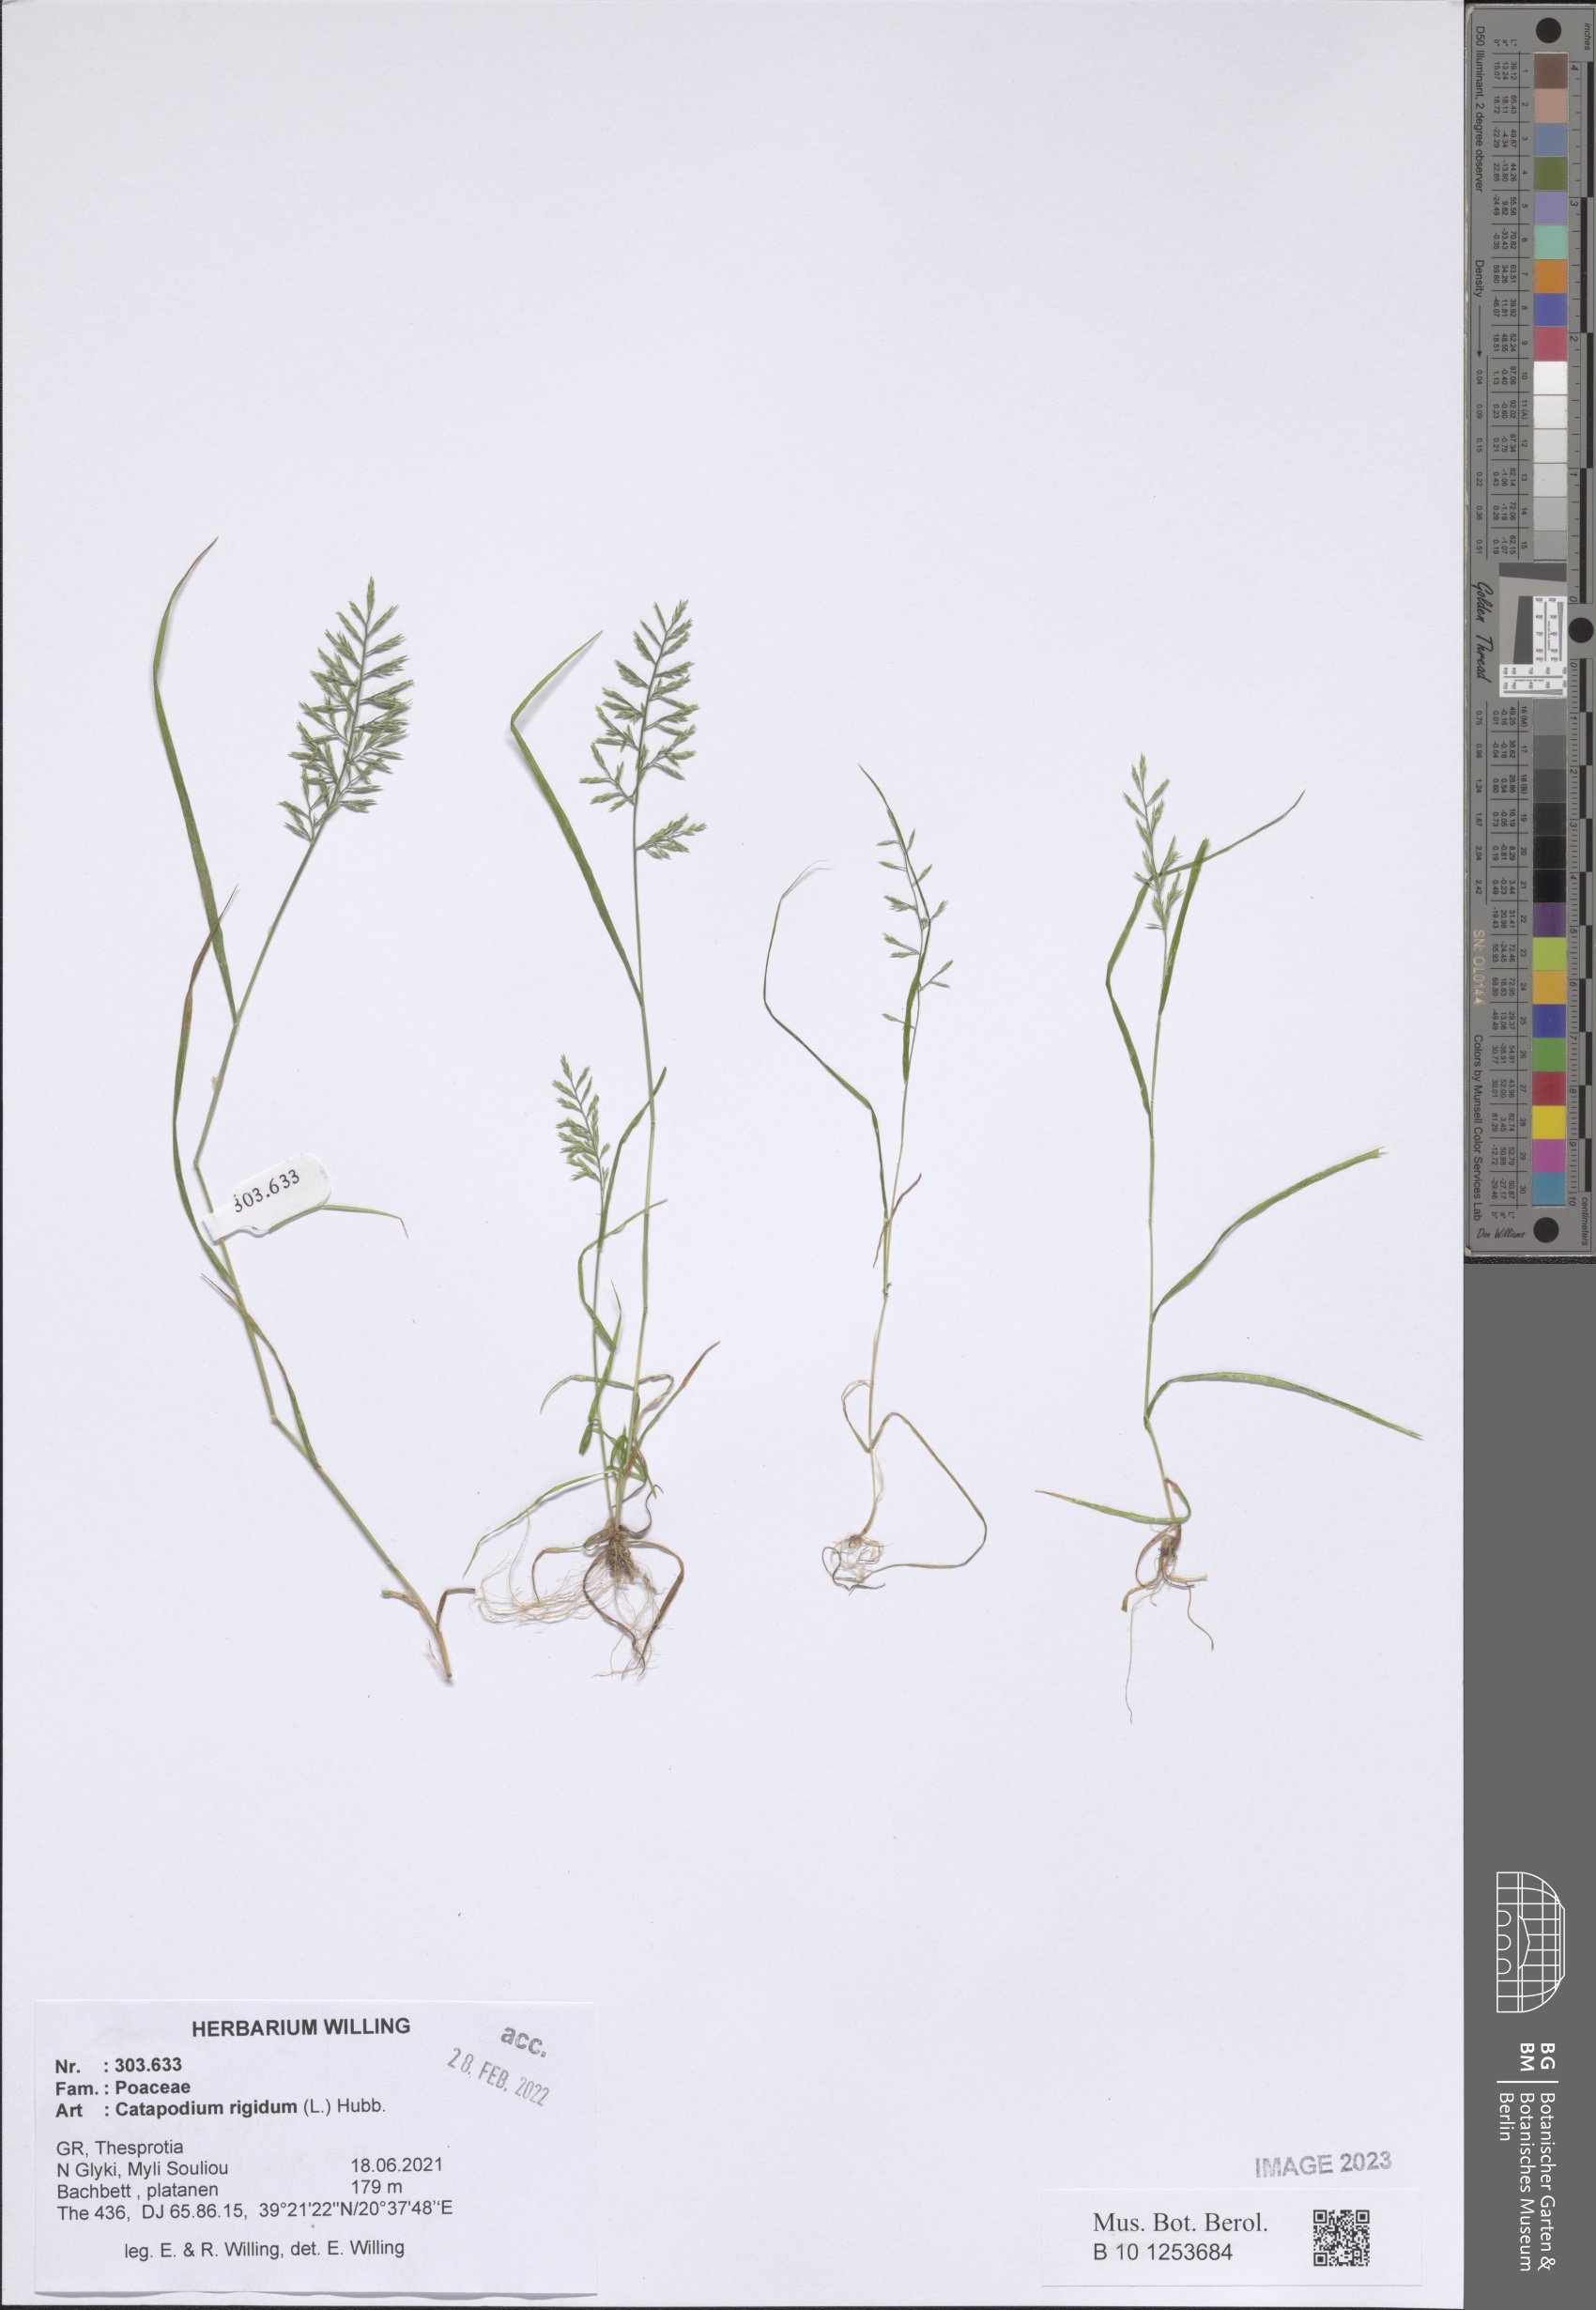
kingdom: Plantae
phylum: Tracheophyta
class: Liliopsida
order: Poales
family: Poaceae
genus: Catapodium
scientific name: Catapodium rigidum
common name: Fern-grass
